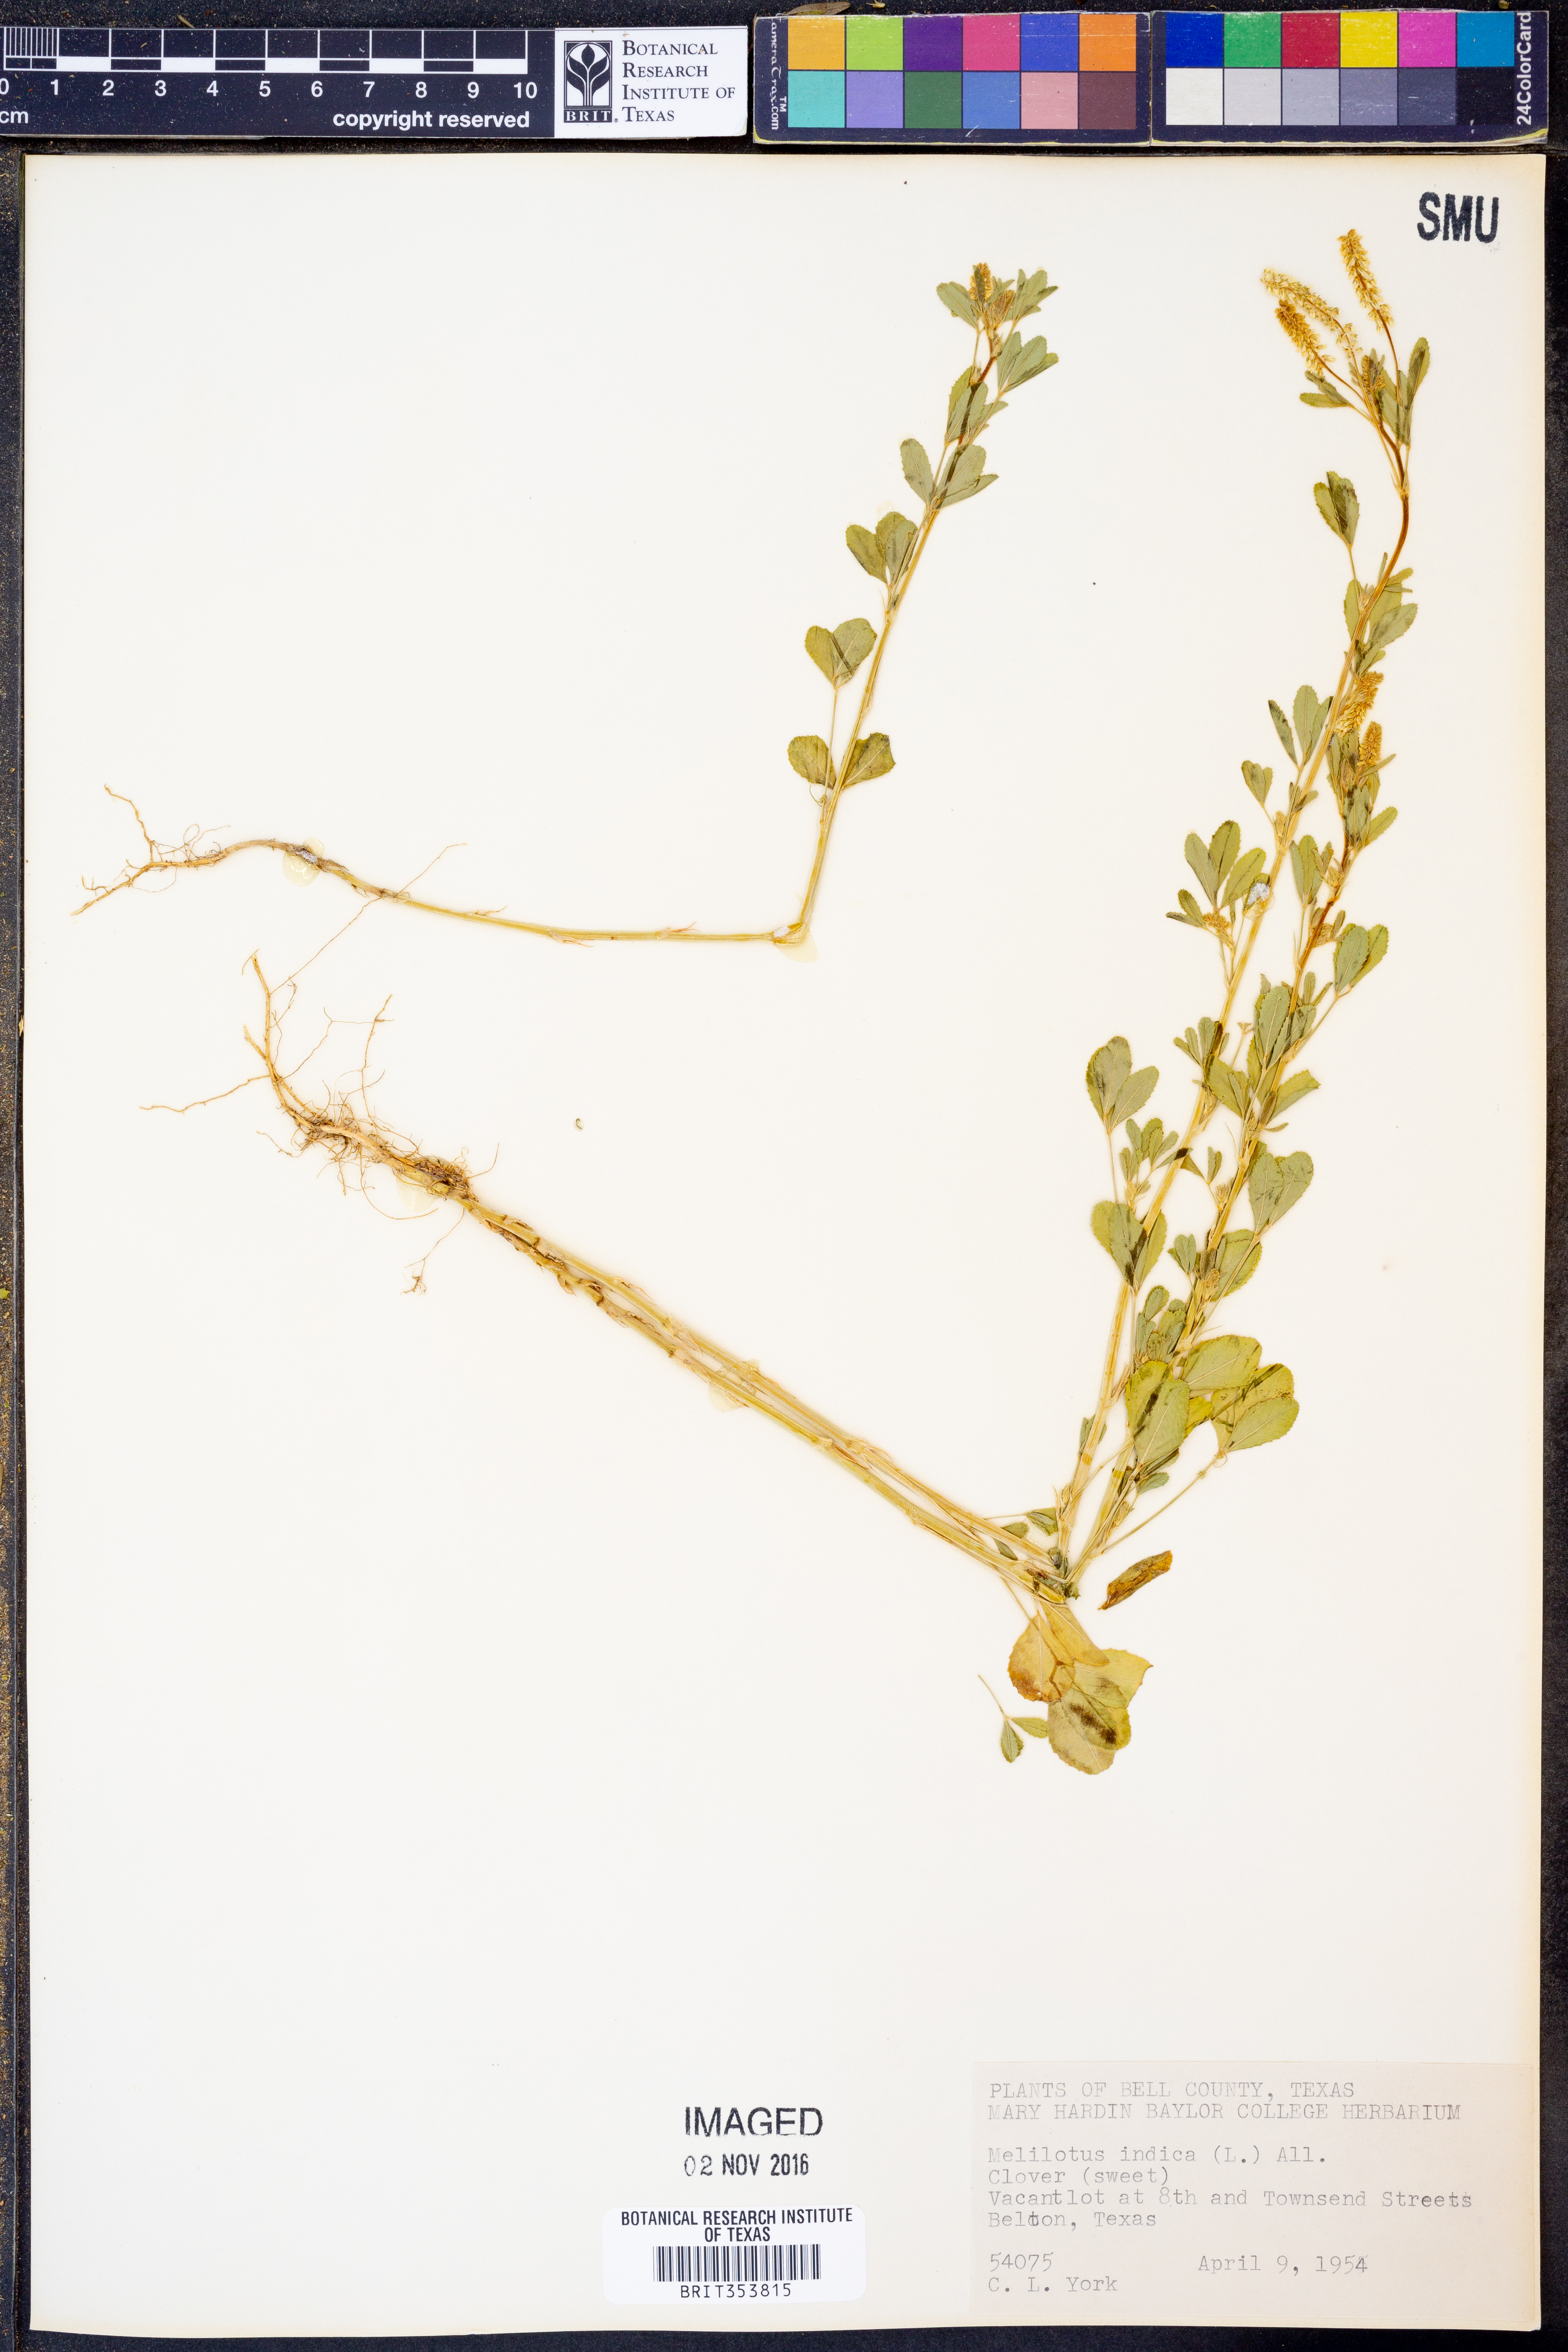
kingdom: Plantae
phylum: Tracheophyta
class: Magnoliopsida
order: Fabales
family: Fabaceae
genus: Melilotus
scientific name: Melilotus indicus
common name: Small melilot
